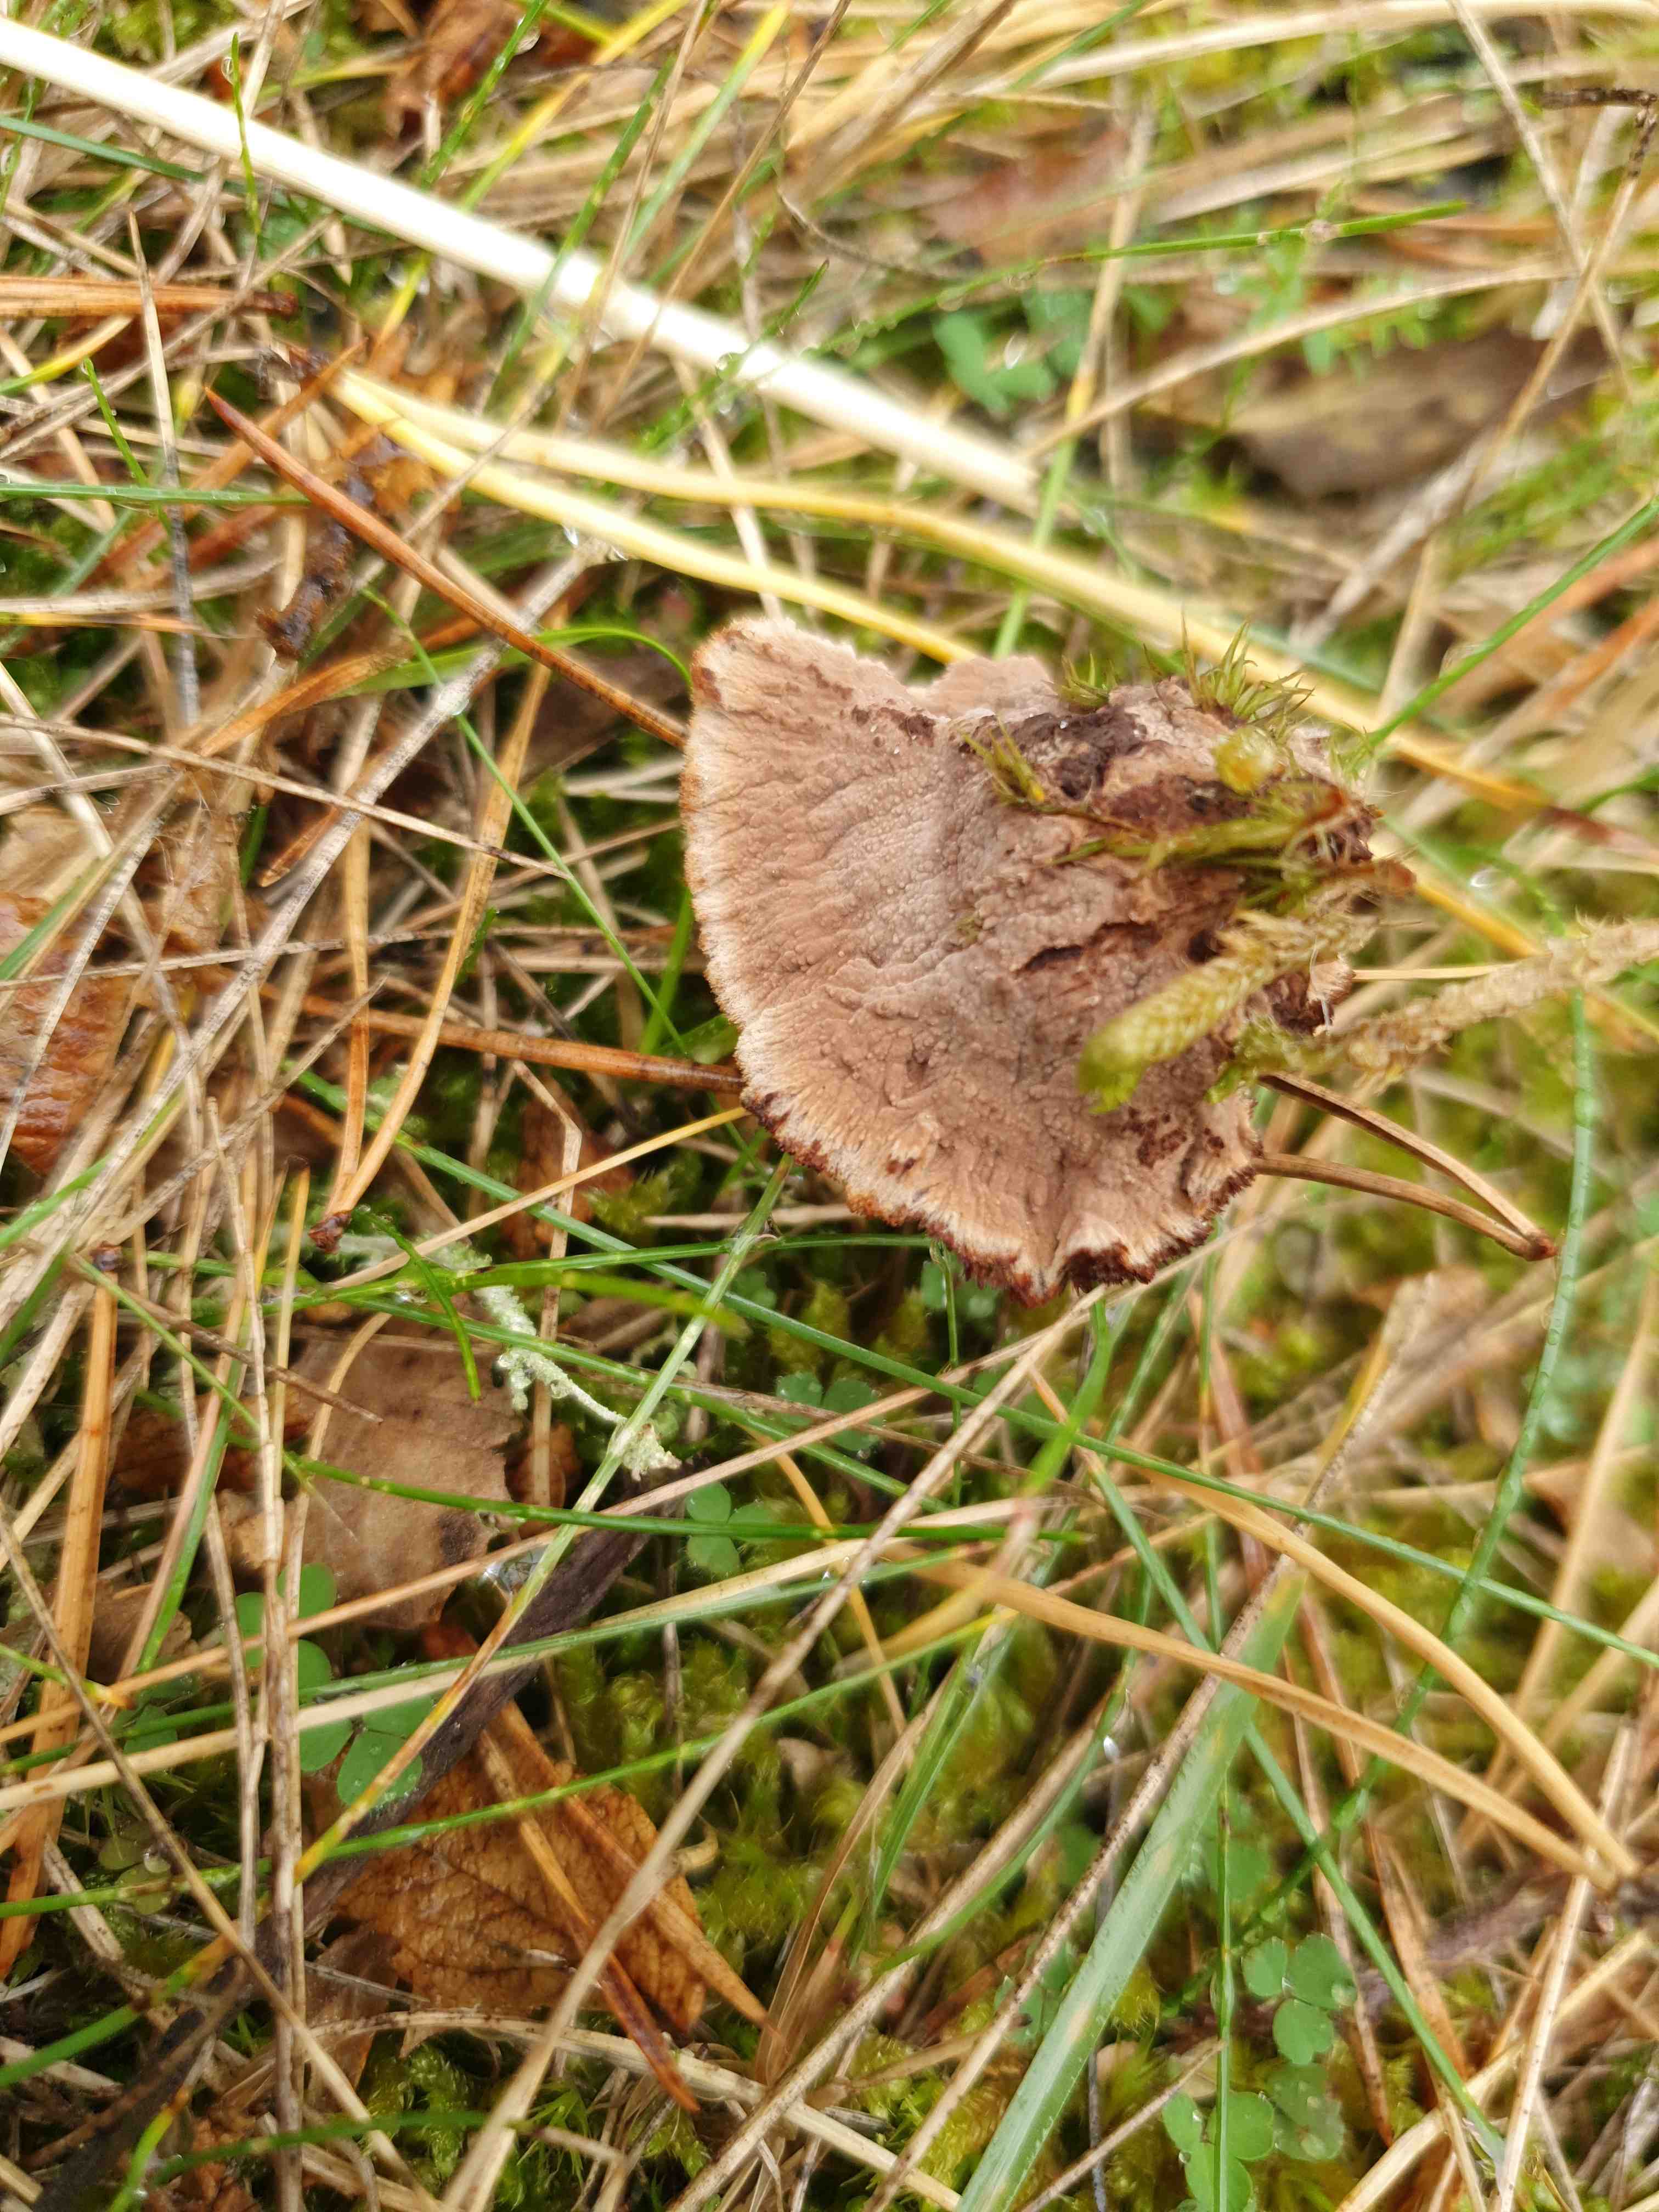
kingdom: Fungi
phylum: Basidiomycota
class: Agaricomycetes
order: Thelephorales
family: Thelephoraceae
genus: Thelephora
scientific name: Thelephora terrestris
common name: fliget frynsesvamp
